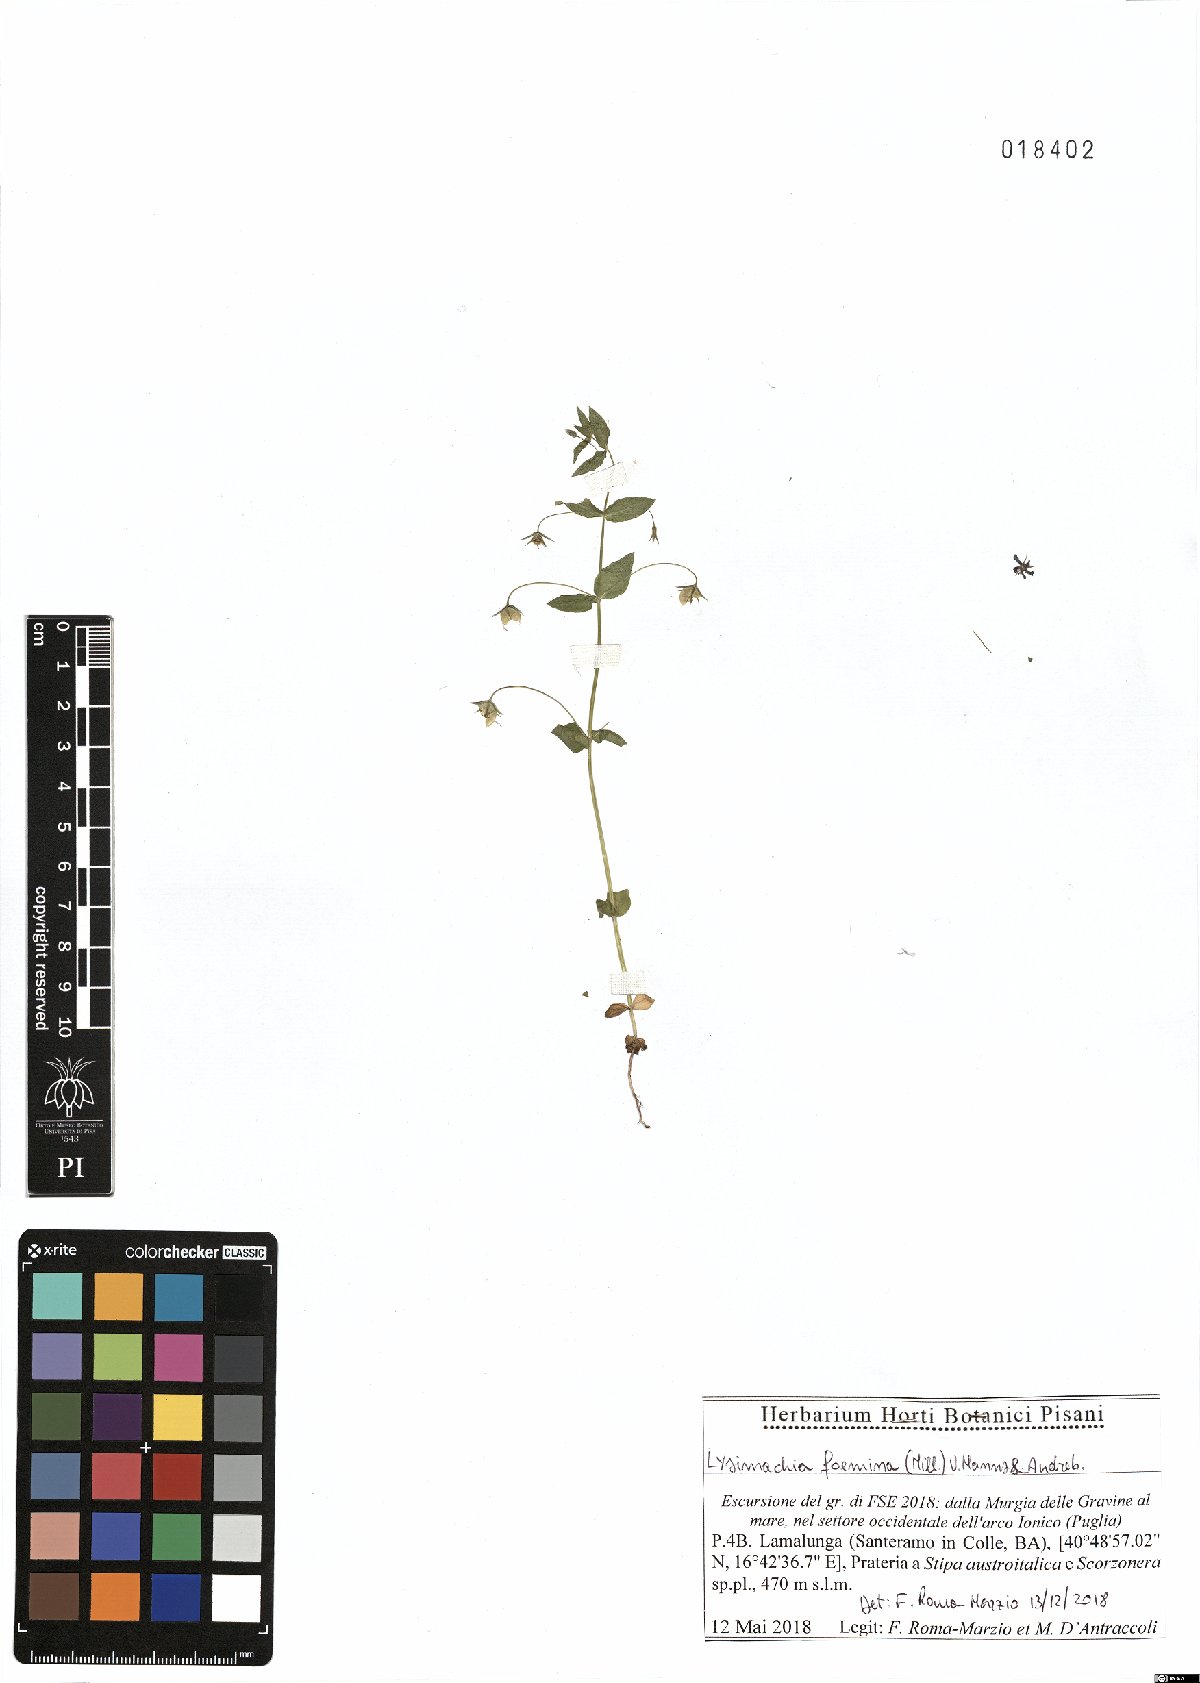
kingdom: Plantae
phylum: Tracheophyta
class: Magnoliopsida
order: Ericales
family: Primulaceae
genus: Lysimachia
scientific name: Lysimachia foemina
